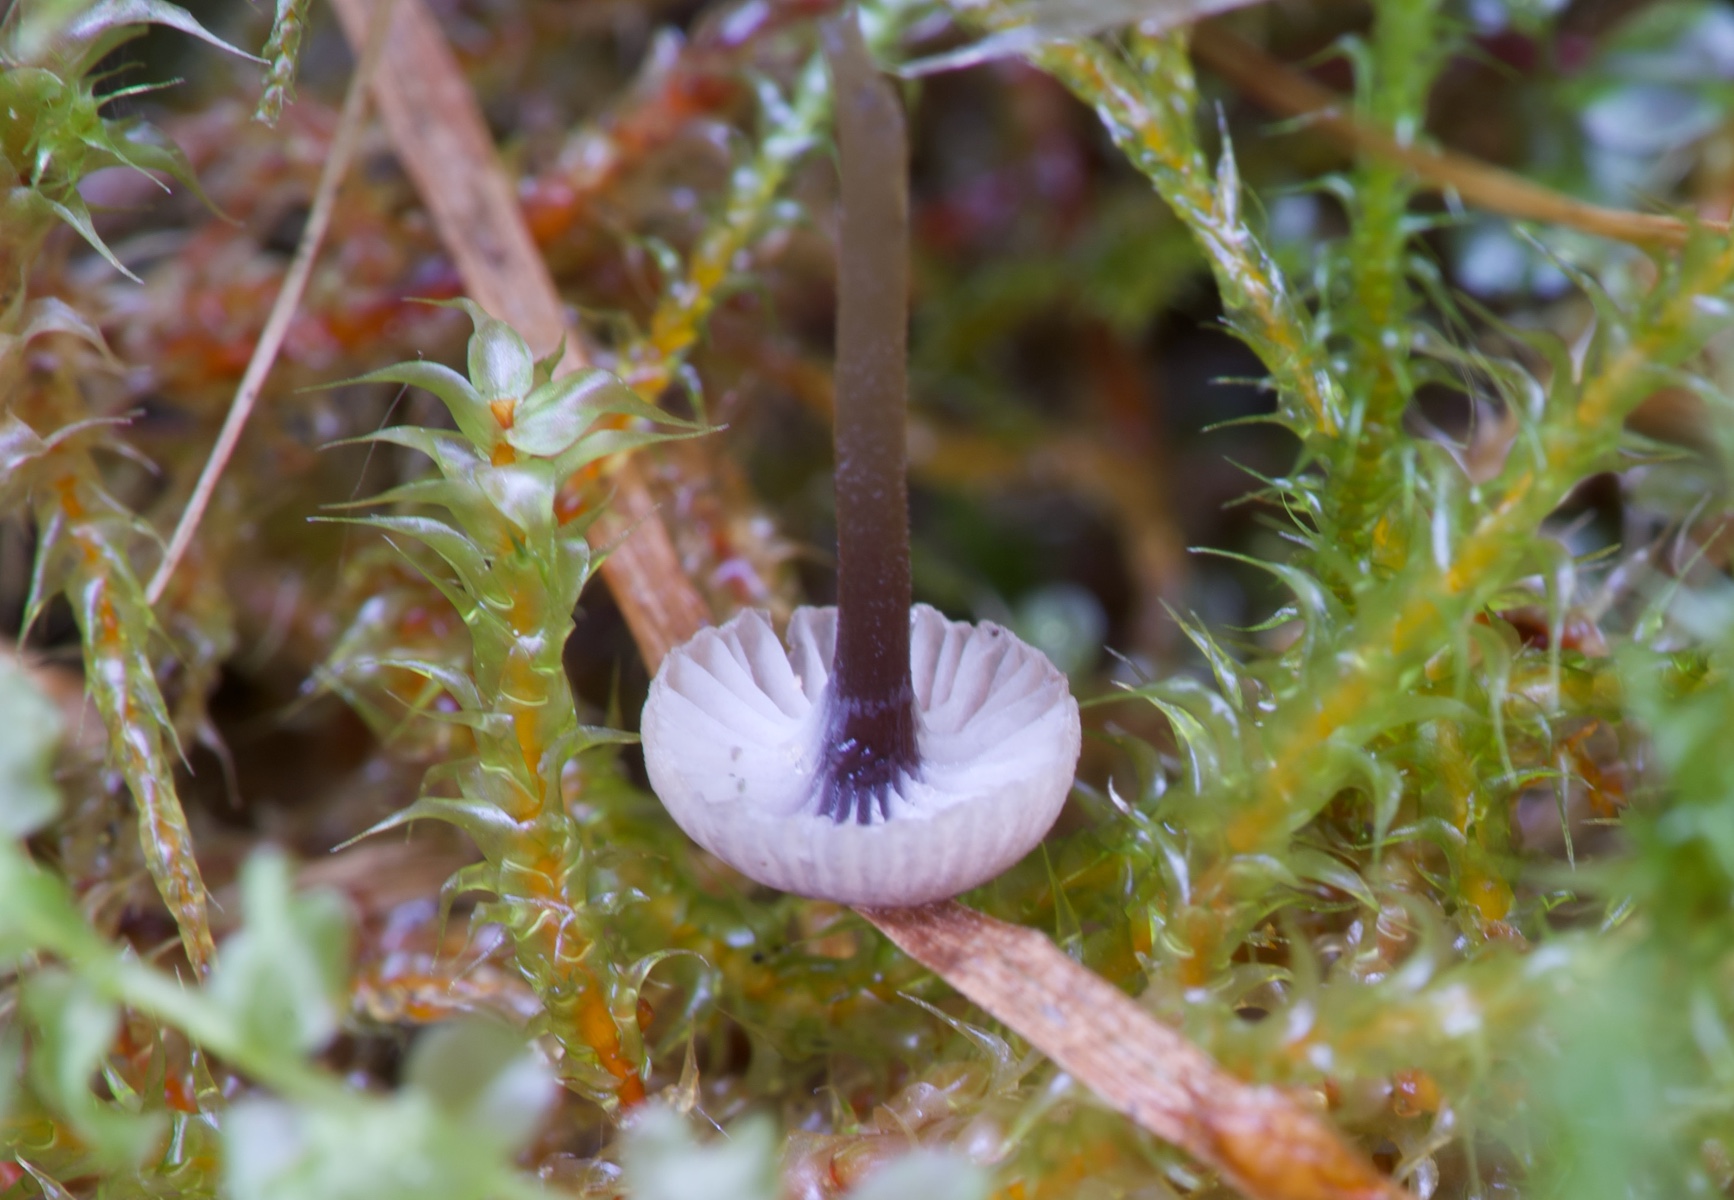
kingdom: Fungi
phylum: Basidiomycota
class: Agaricomycetes
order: Hymenochaetales
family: Rickenellaceae
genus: Rickenella
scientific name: Rickenella swartzii
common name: finstokket mosnavlehat
